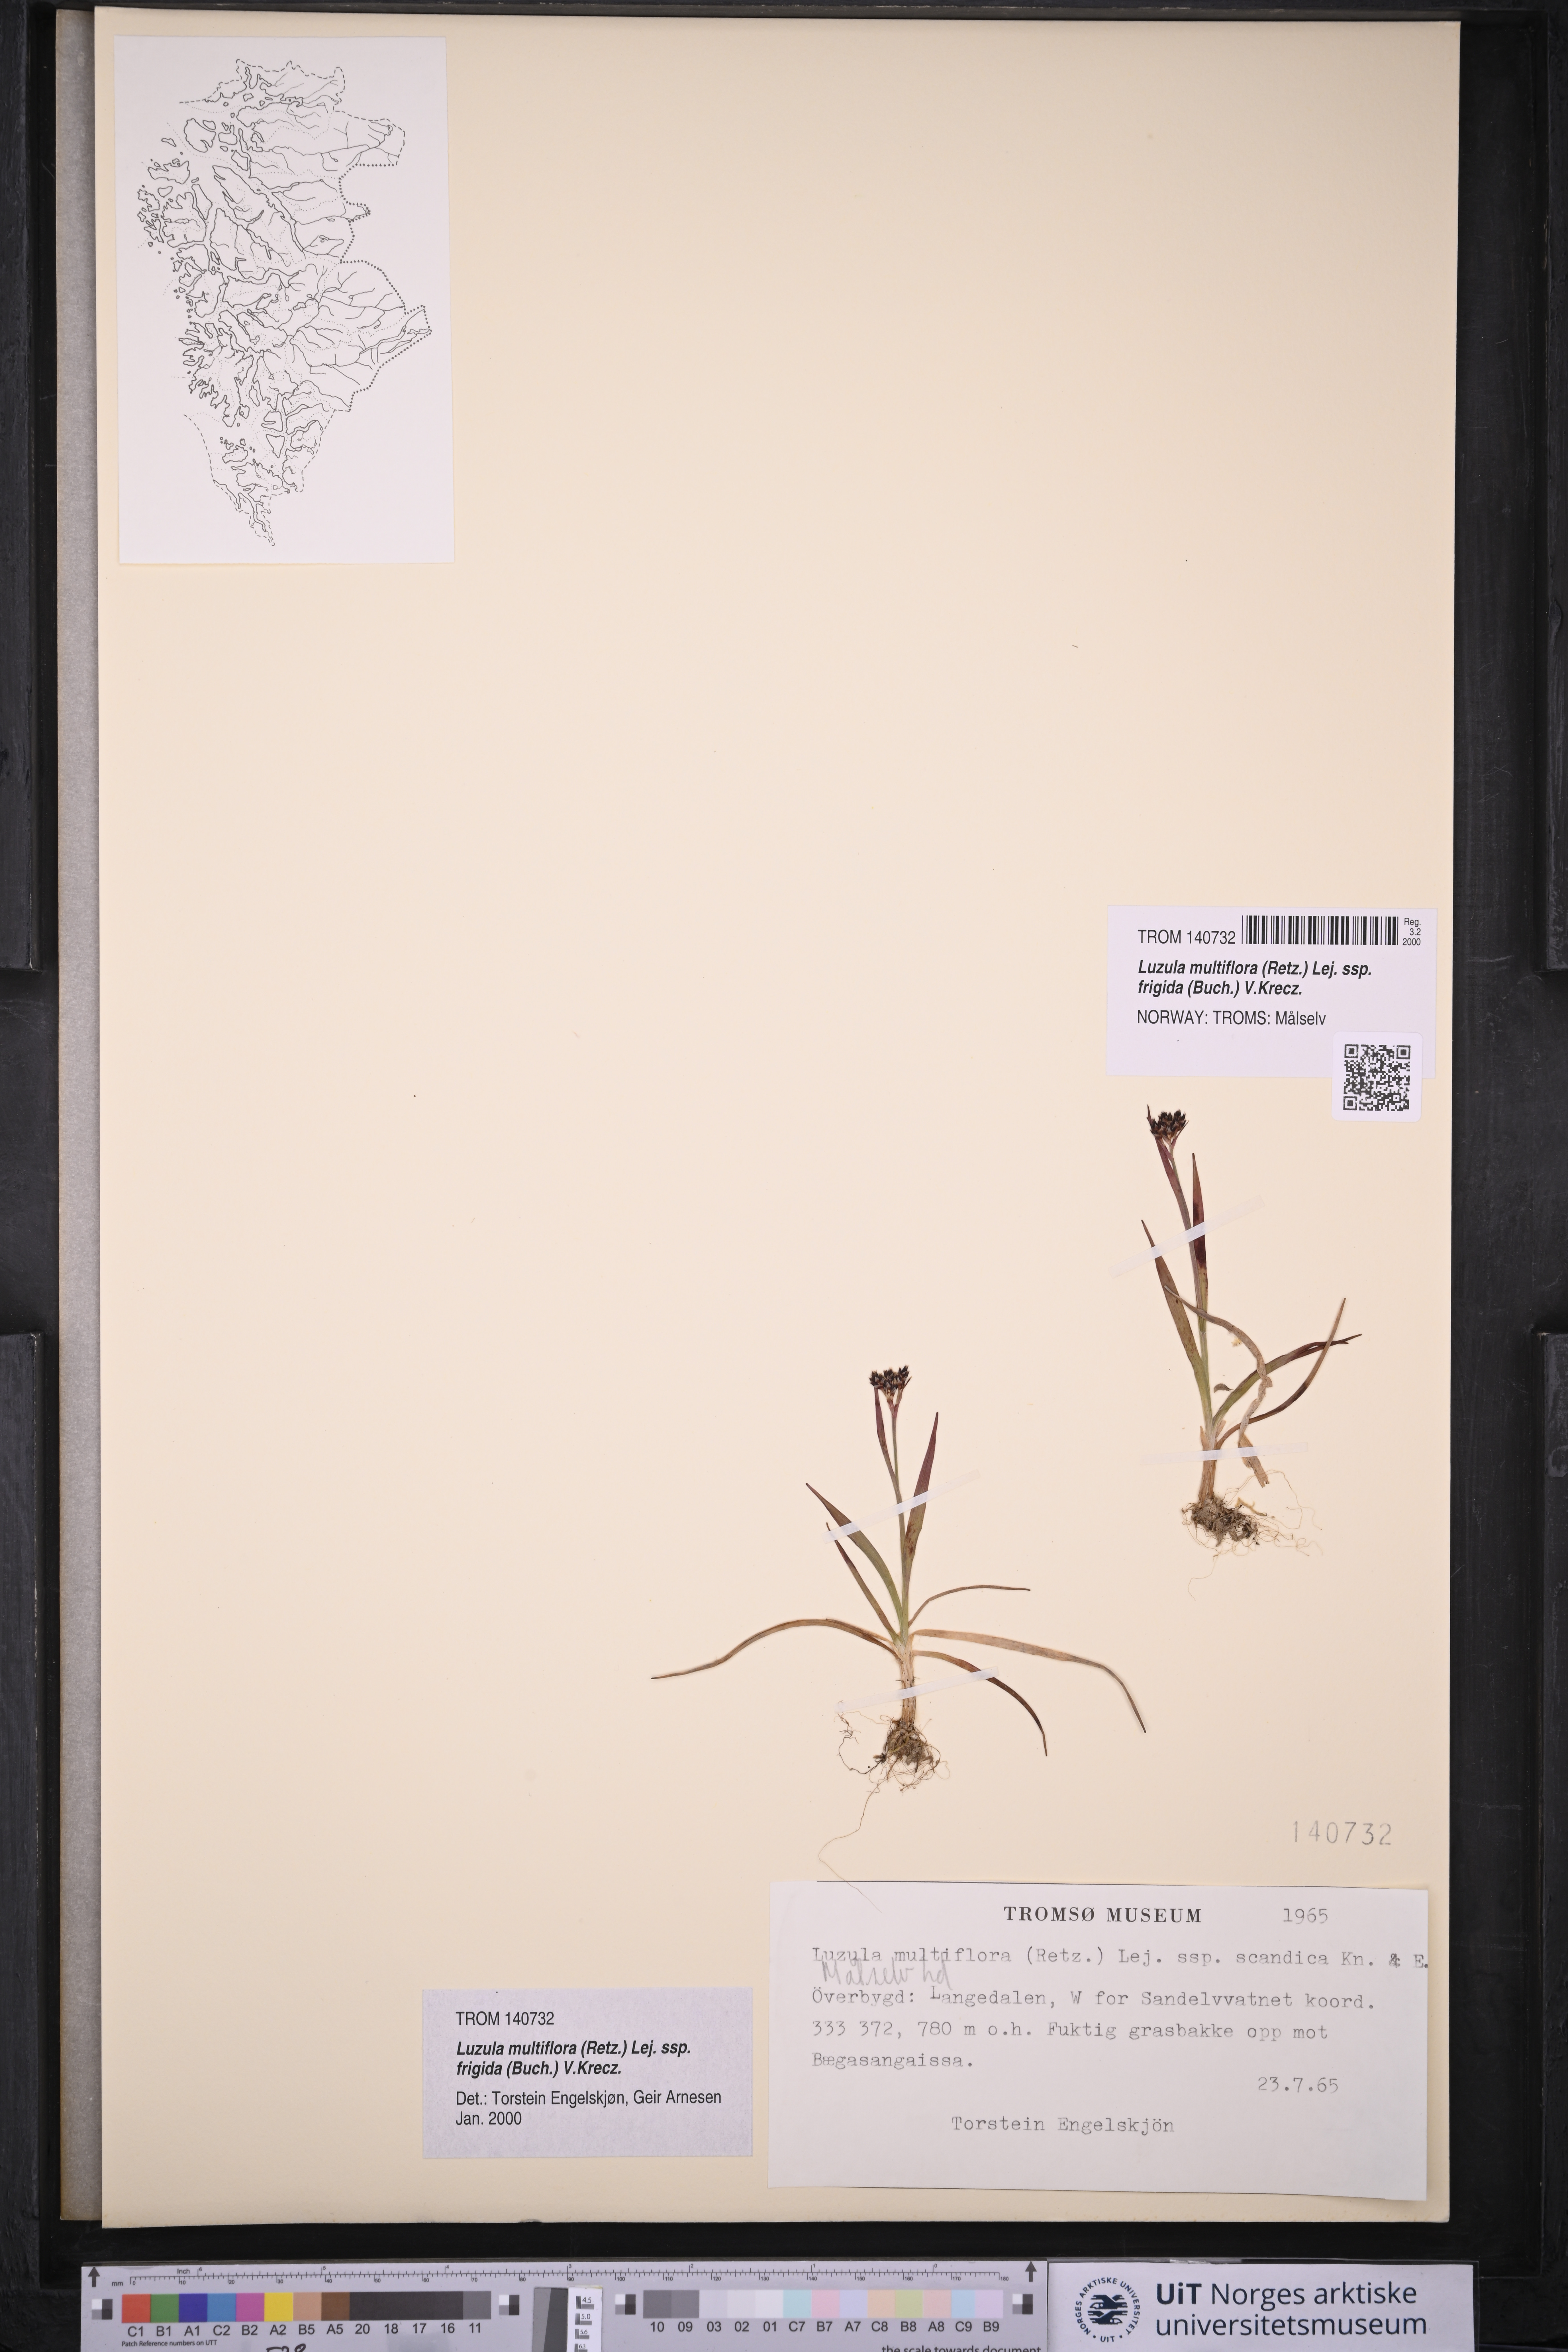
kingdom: Plantae
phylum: Tracheophyta
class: Liliopsida
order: Poales
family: Juncaceae
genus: Luzula
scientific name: Luzula multiflora
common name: Heath wood-rush
